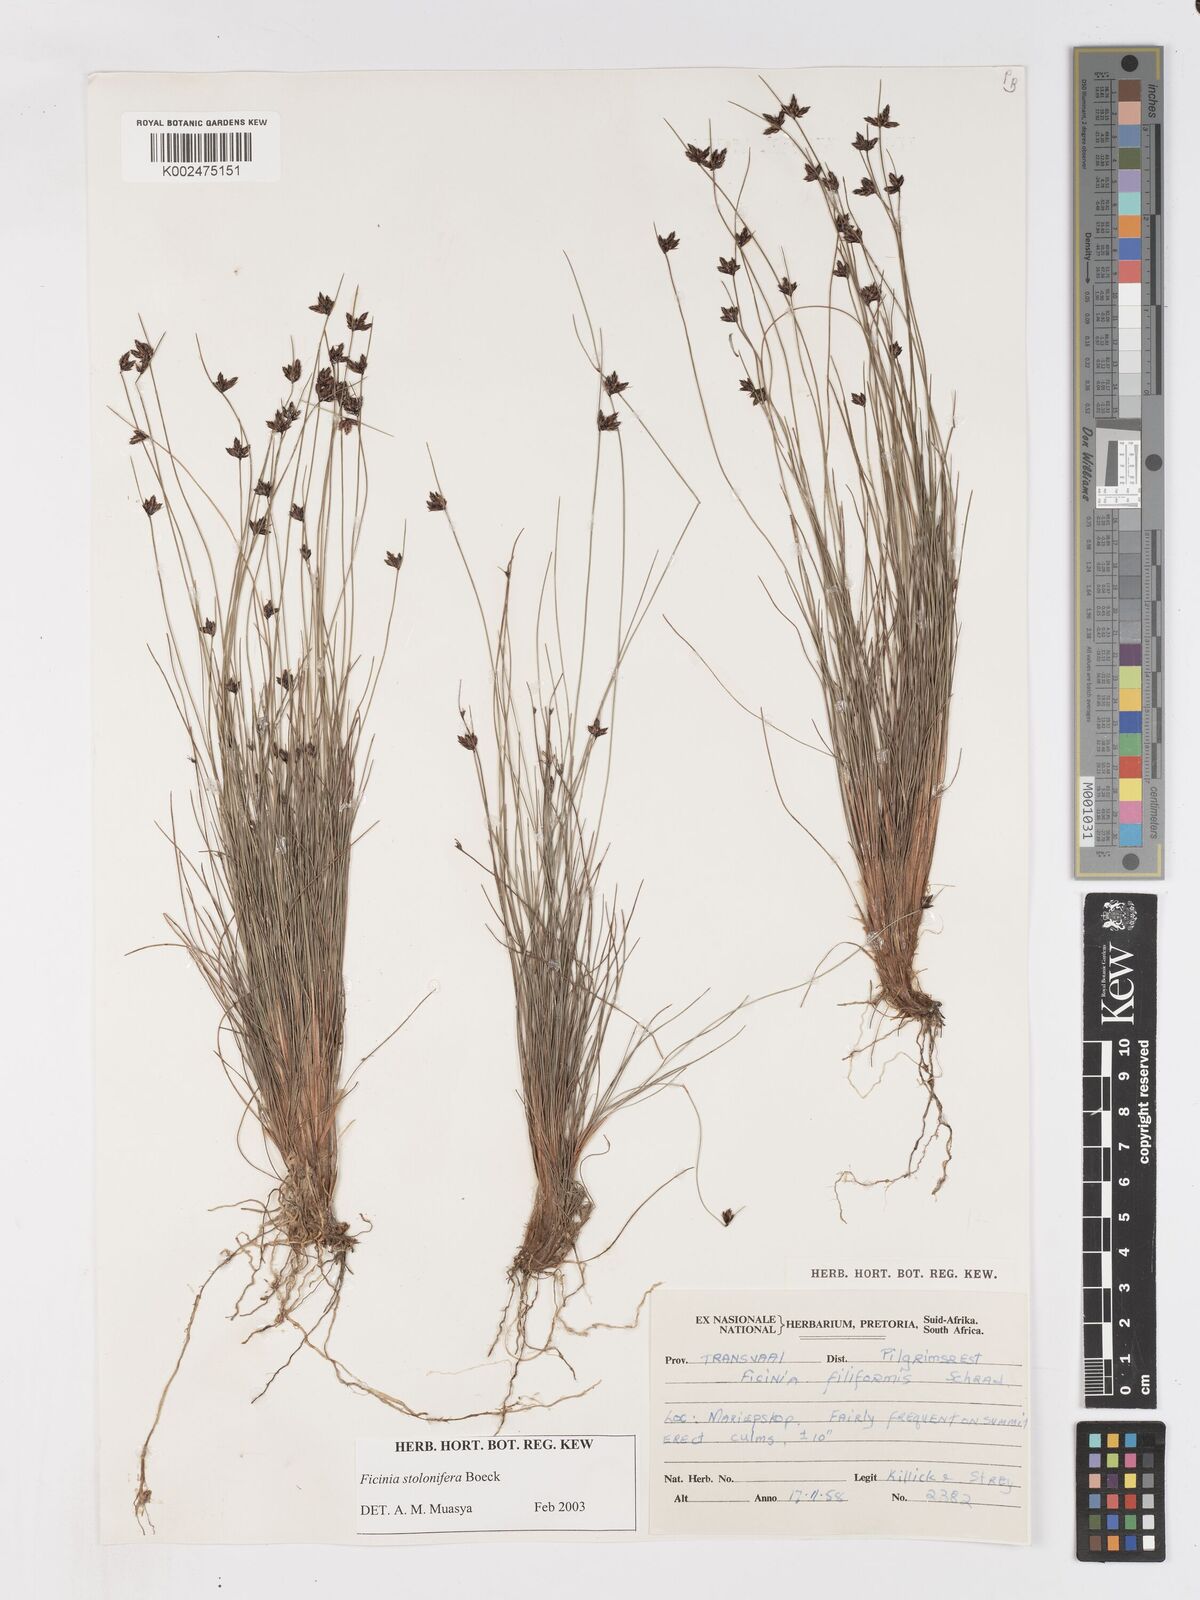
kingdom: Plantae
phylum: Tracheophyta
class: Liliopsida
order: Poales
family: Cyperaceae
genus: Ficinia
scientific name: Ficinia stolonifera
